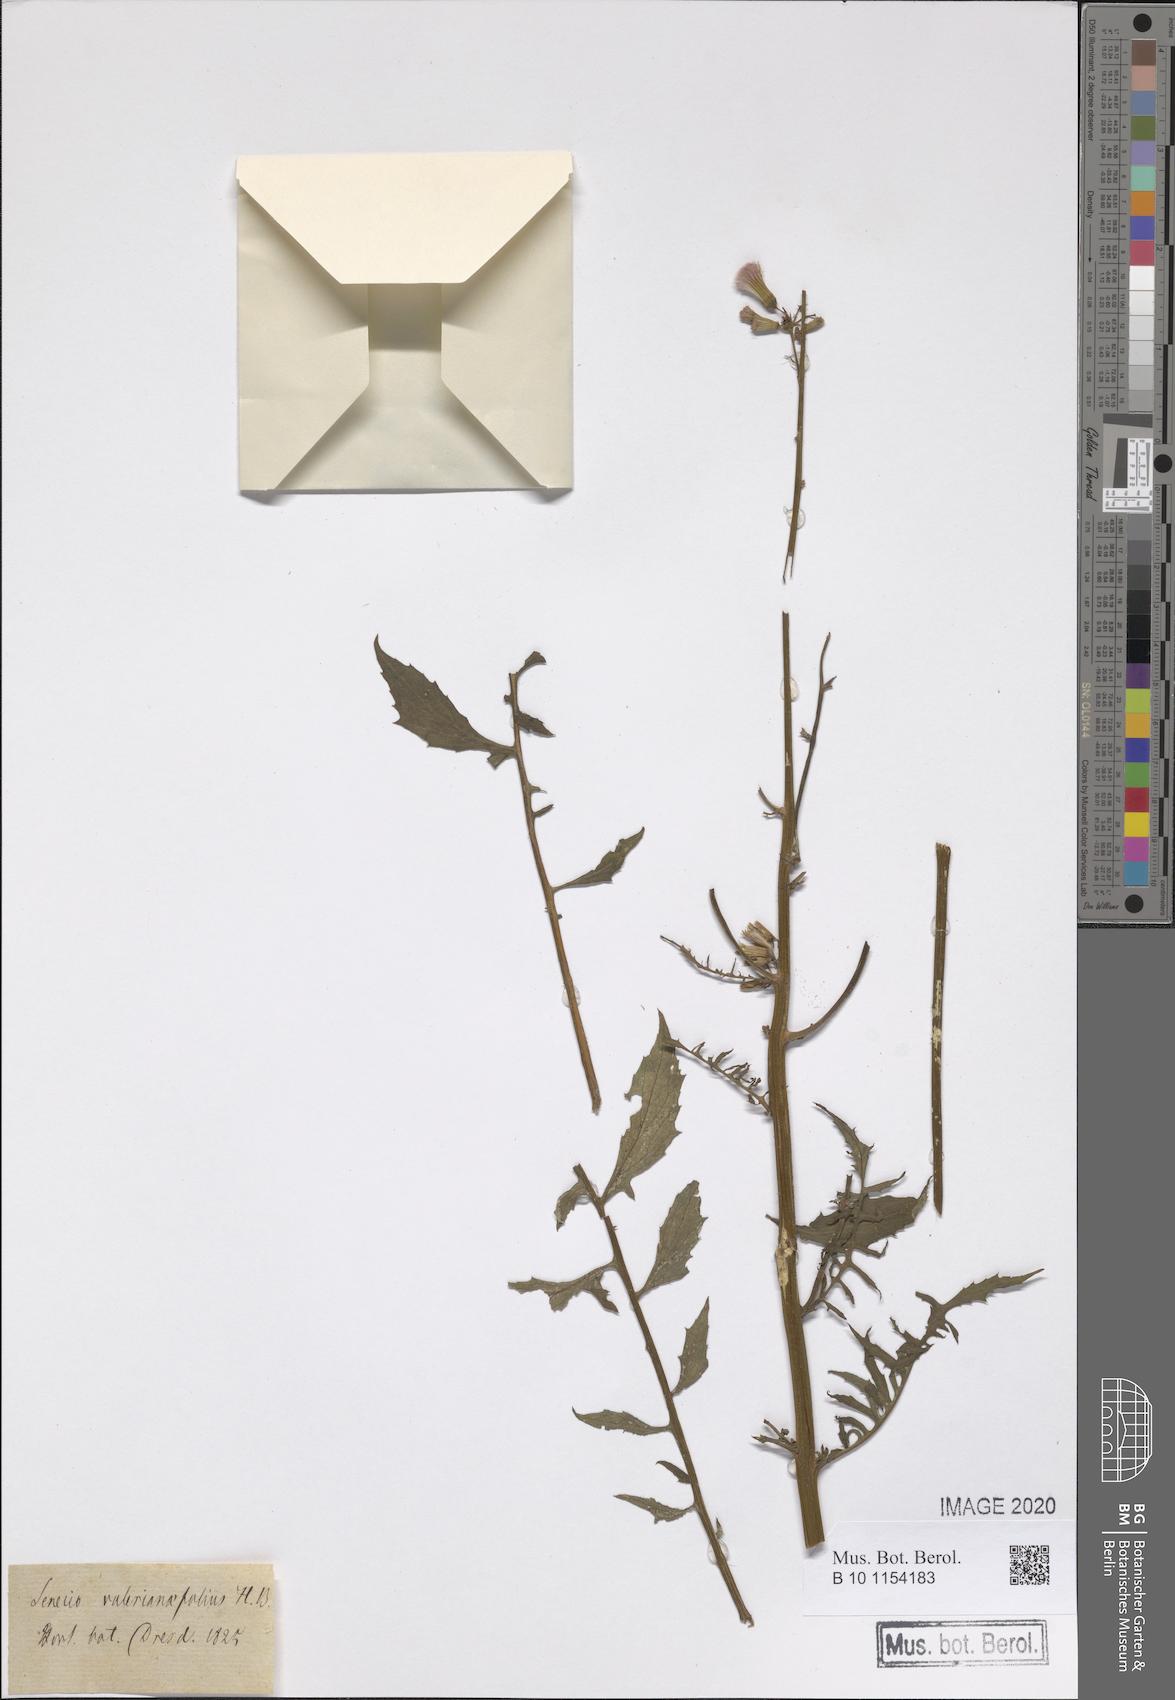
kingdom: Plantae
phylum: Tracheophyta
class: Magnoliopsida
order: Asterales
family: Asteraceae
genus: Erechtites
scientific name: Erechtites valerianifolius
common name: Tropical burnweed
